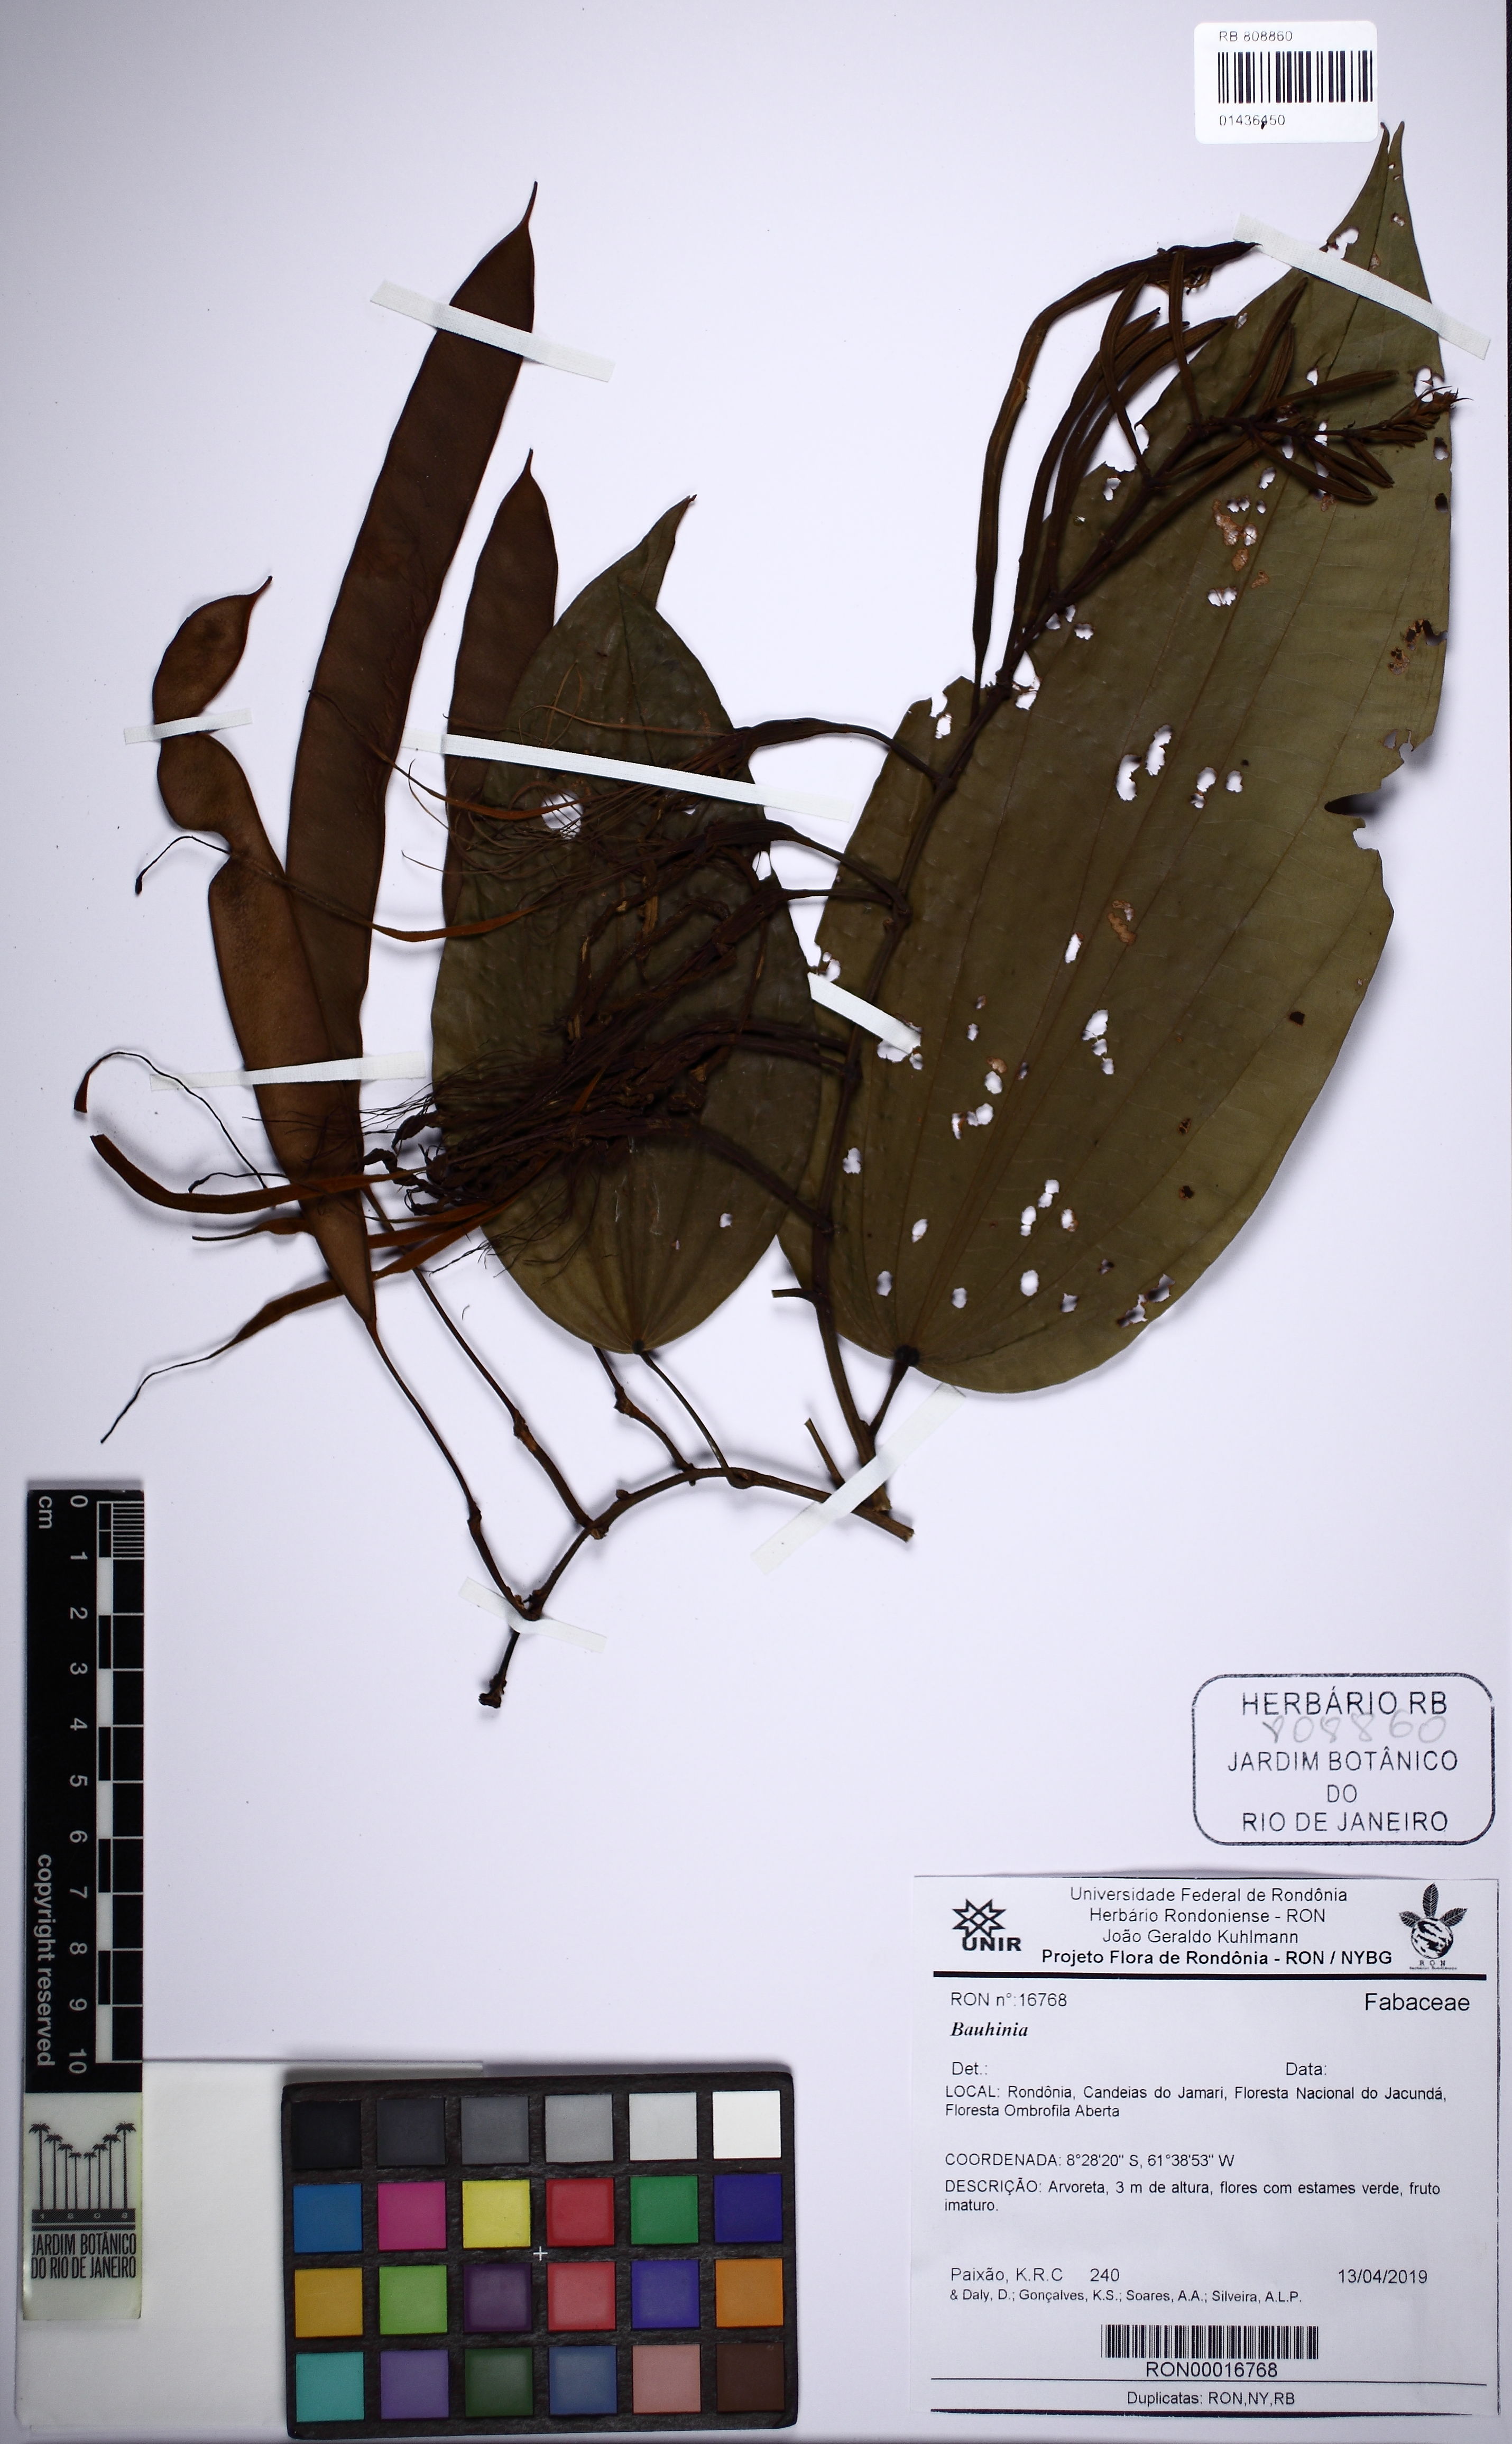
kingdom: Plantae
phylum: Tracheophyta
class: Magnoliopsida
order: Fabales
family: Fabaceae
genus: Bauhinia
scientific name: Bauhinia
